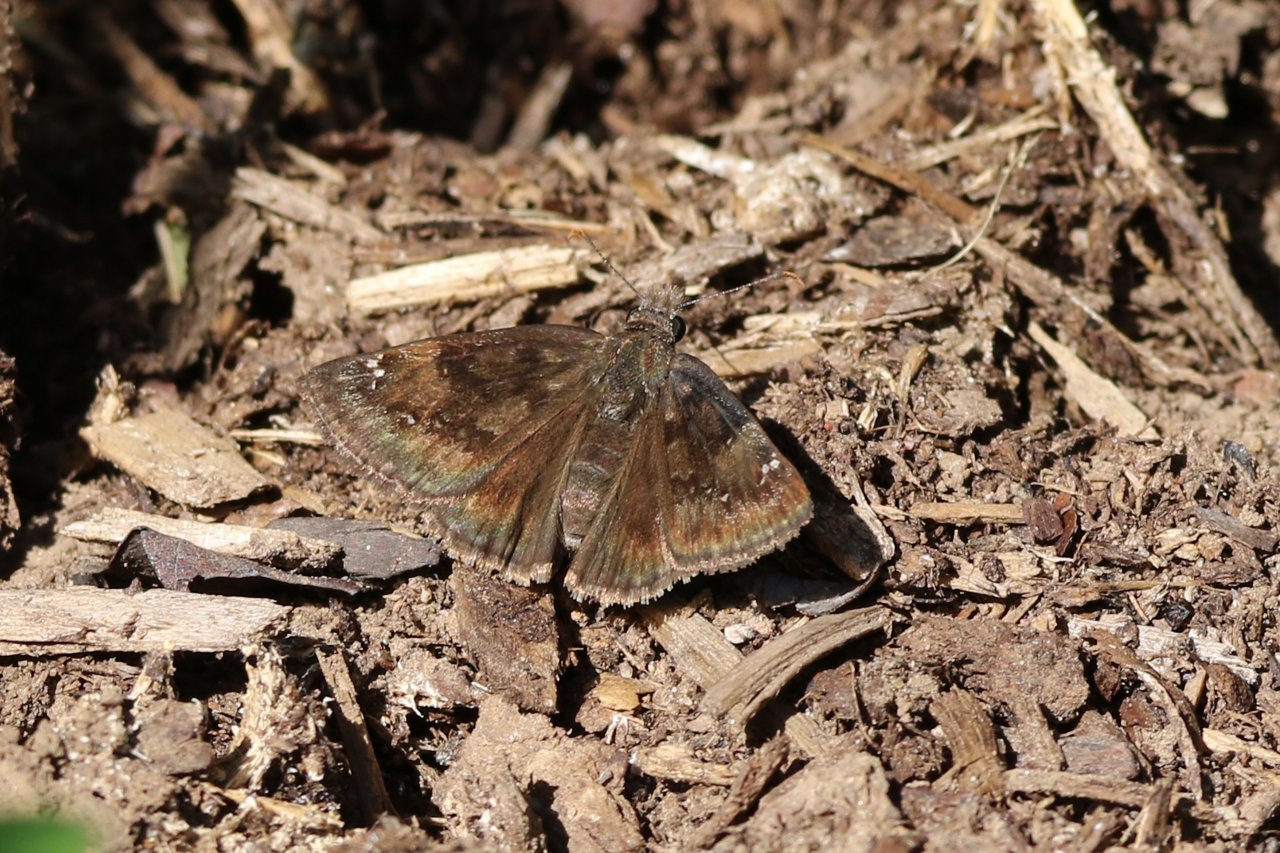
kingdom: Animalia
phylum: Arthropoda
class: Insecta
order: Lepidoptera
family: Hesperiidae
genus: Gesta
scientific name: Gesta
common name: Wild Indigo Duskywing
